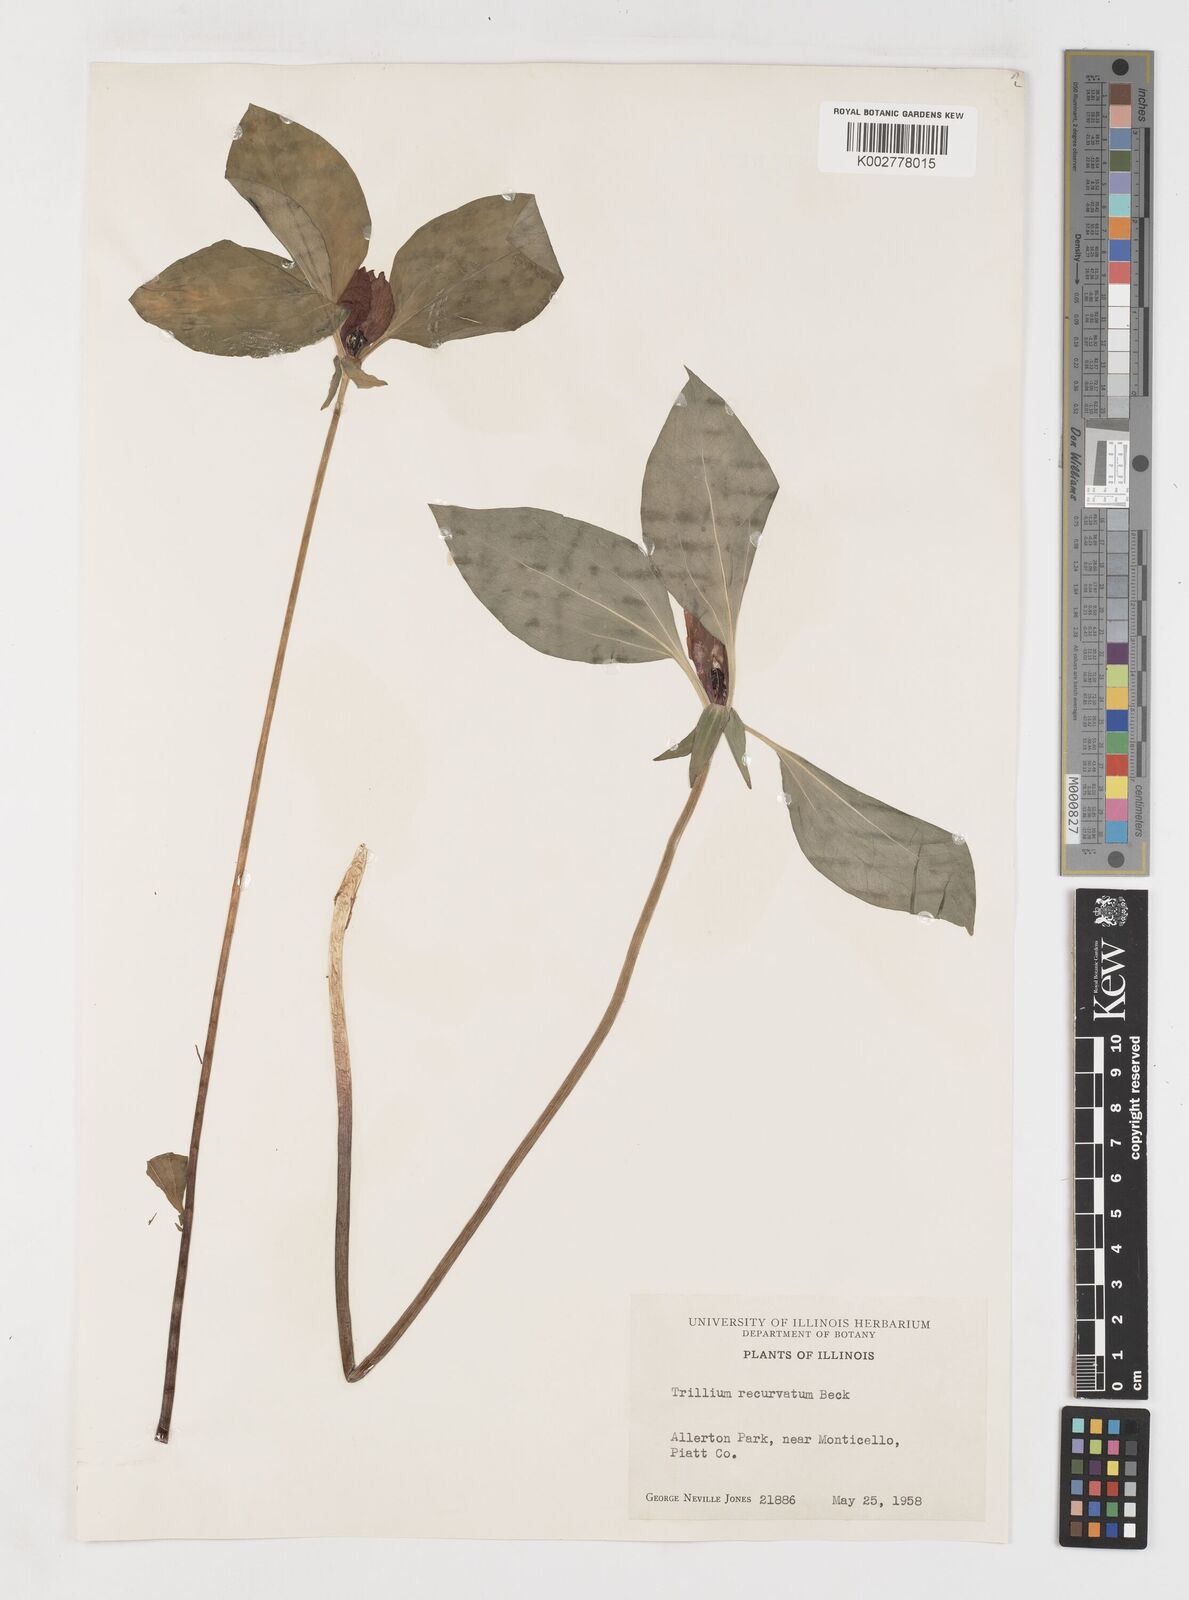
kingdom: Plantae
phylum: Tracheophyta
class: Liliopsida
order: Liliales
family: Melanthiaceae
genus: Trillium
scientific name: Trillium recurvatum
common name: Bloody butcher
